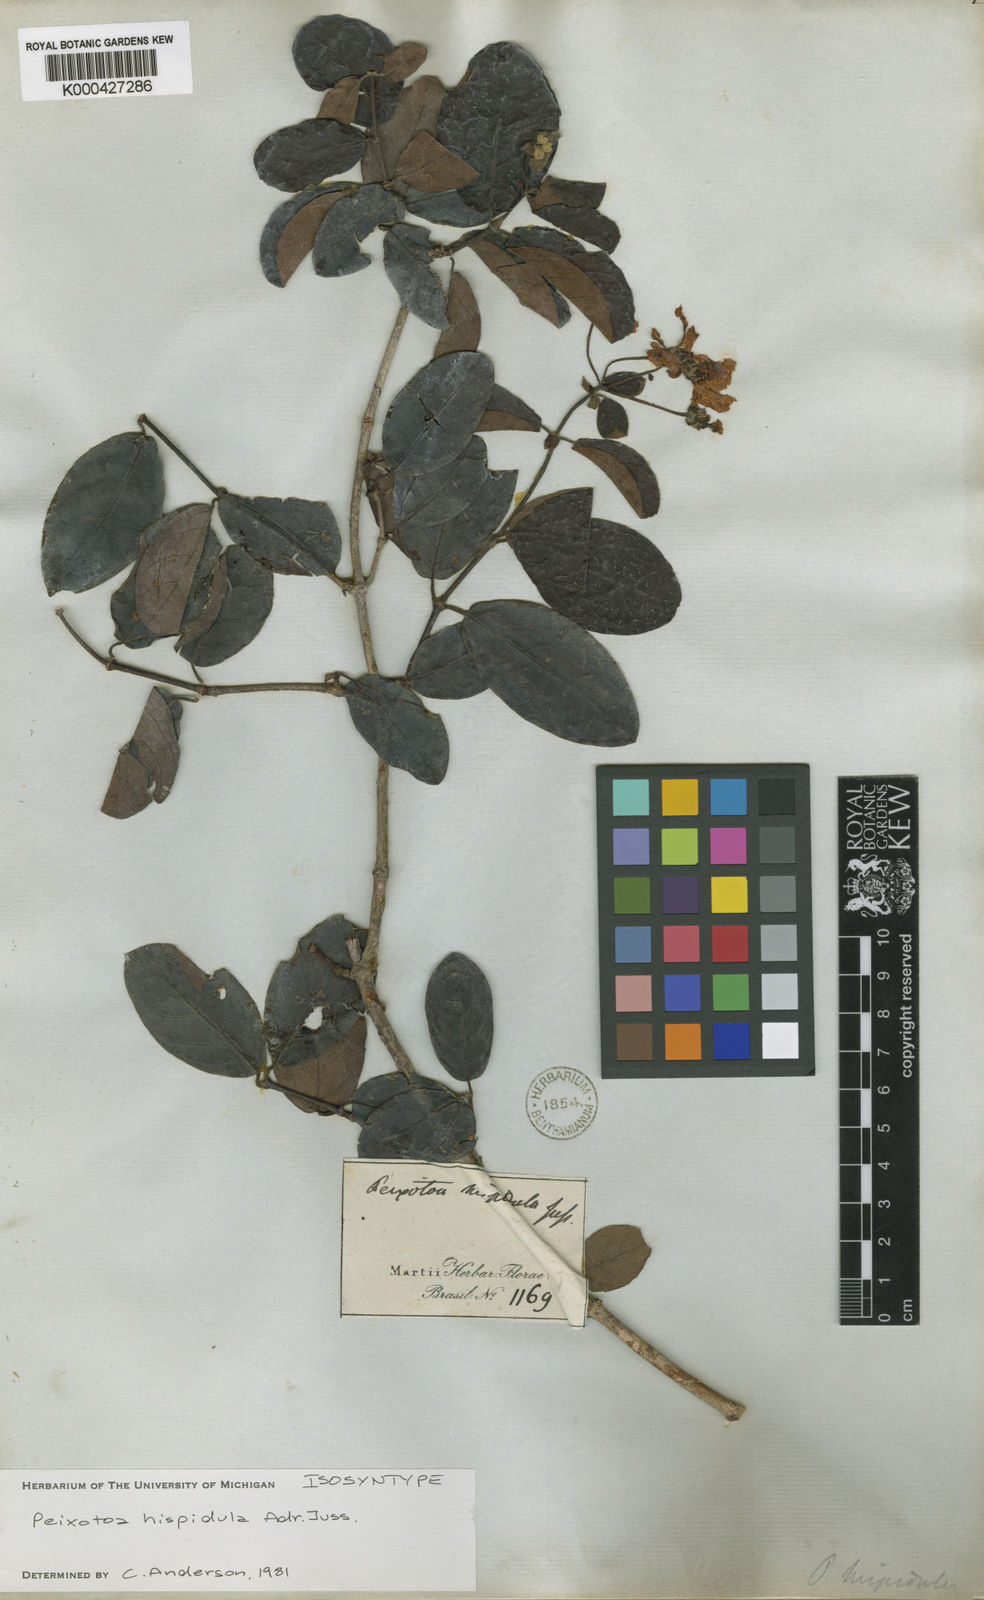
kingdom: Plantae
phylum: Tracheophyta
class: Magnoliopsida
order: Malpighiales
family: Malpighiaceae
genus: Peixotoa
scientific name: Peixotoa hispidula
